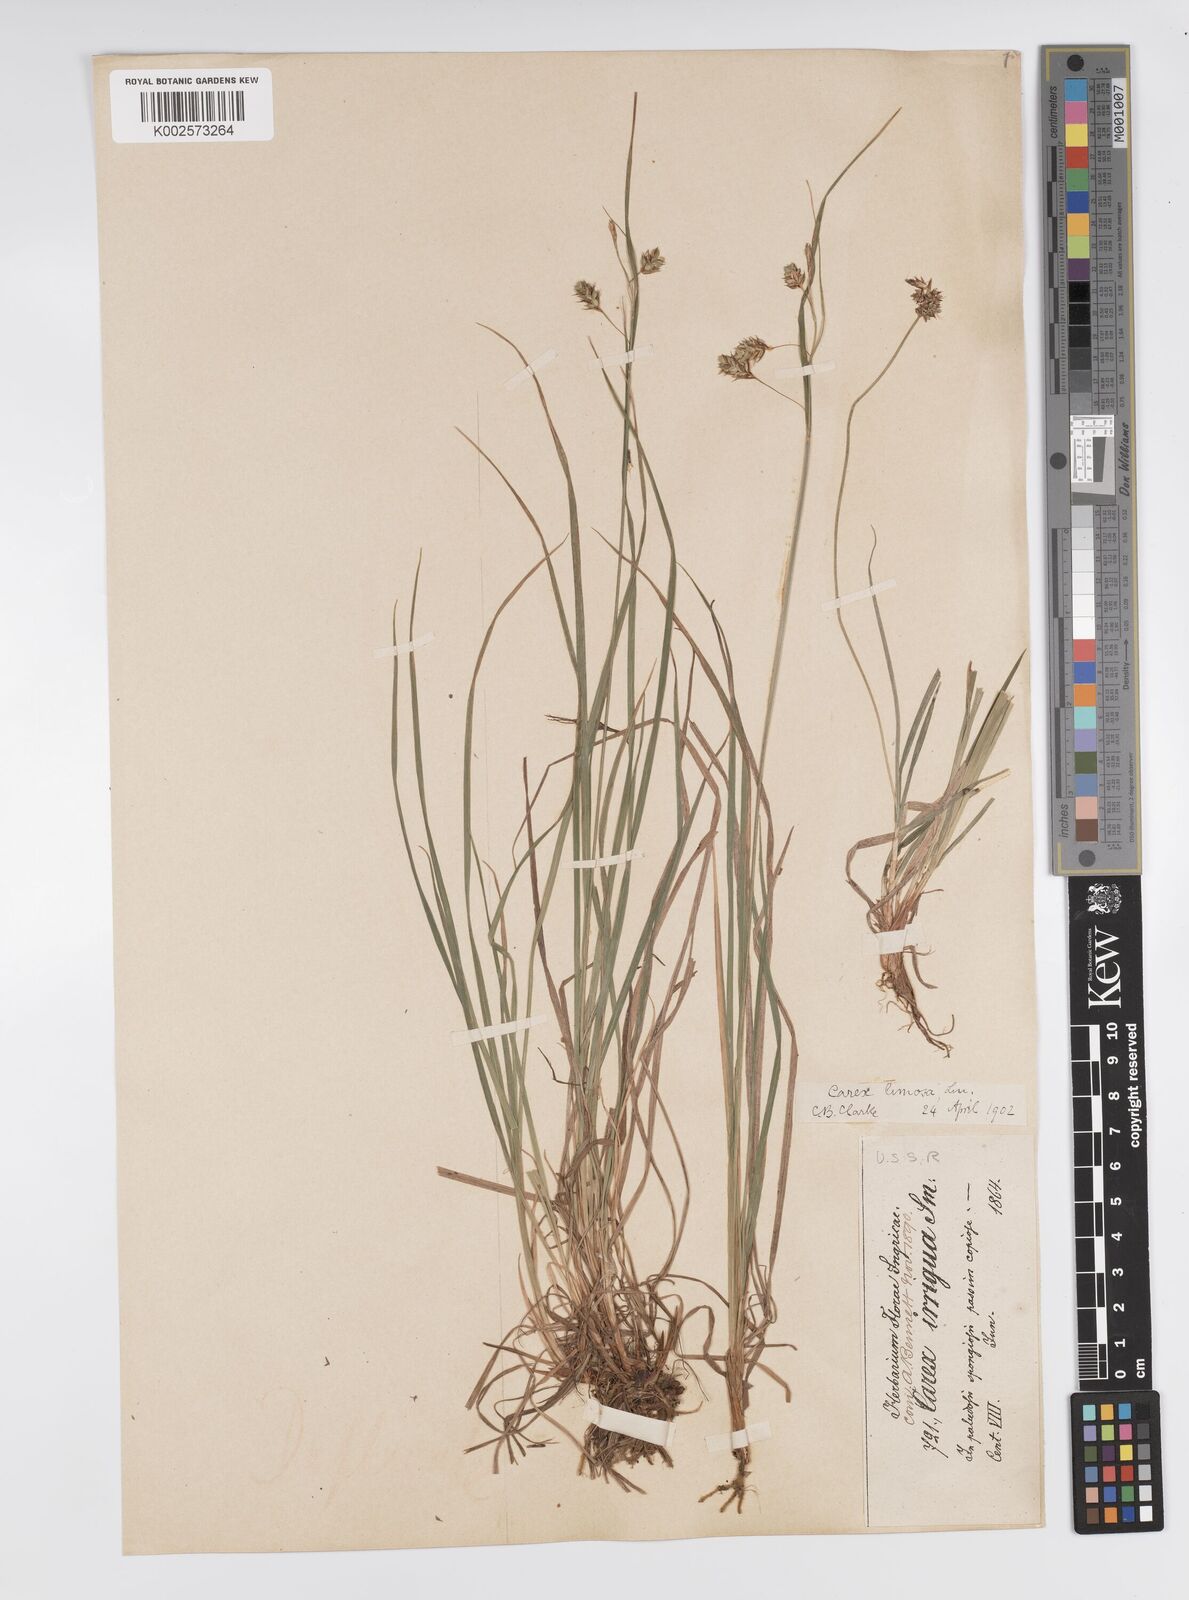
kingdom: Plantae
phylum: Tracheophyta
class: Liliopsida
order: Poales
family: Cyperaceae
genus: Carex
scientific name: Carex magellanica
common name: Bog sedge
